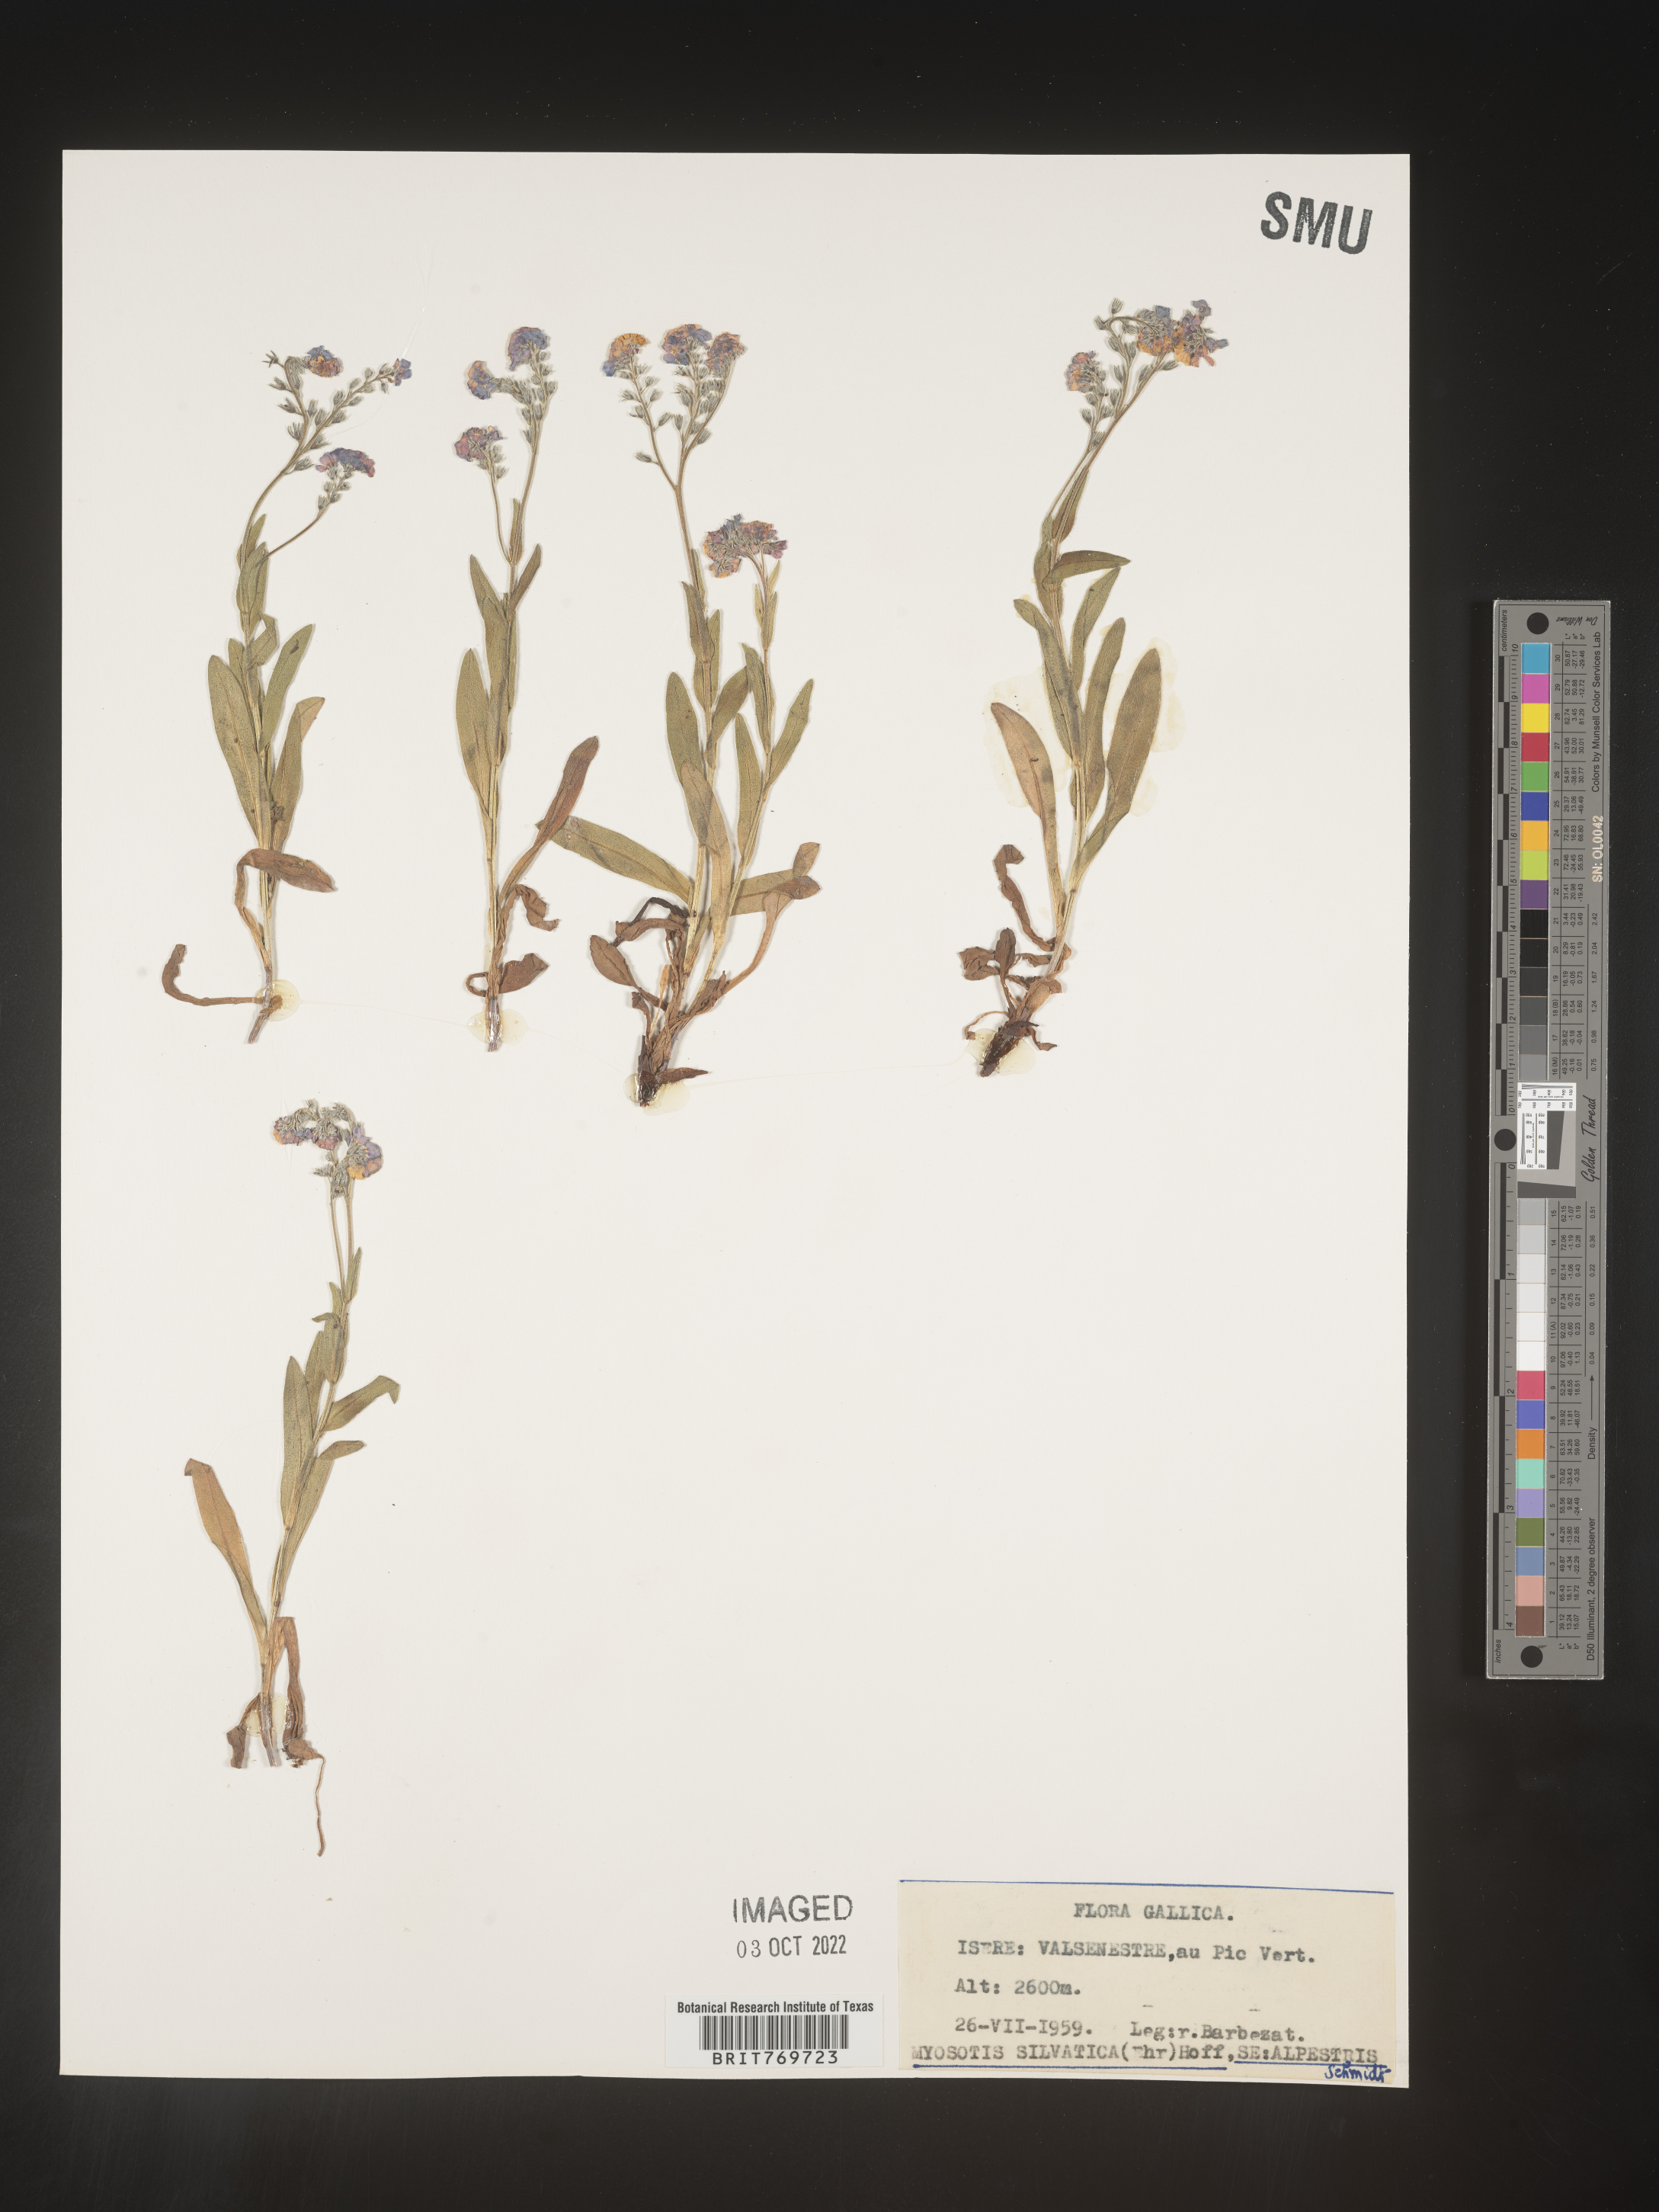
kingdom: Plantae
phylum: Tracheophyta
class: Magnoliopsida
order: Boraginales
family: Boraginaceae
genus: Myosotis
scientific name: Myosotis
